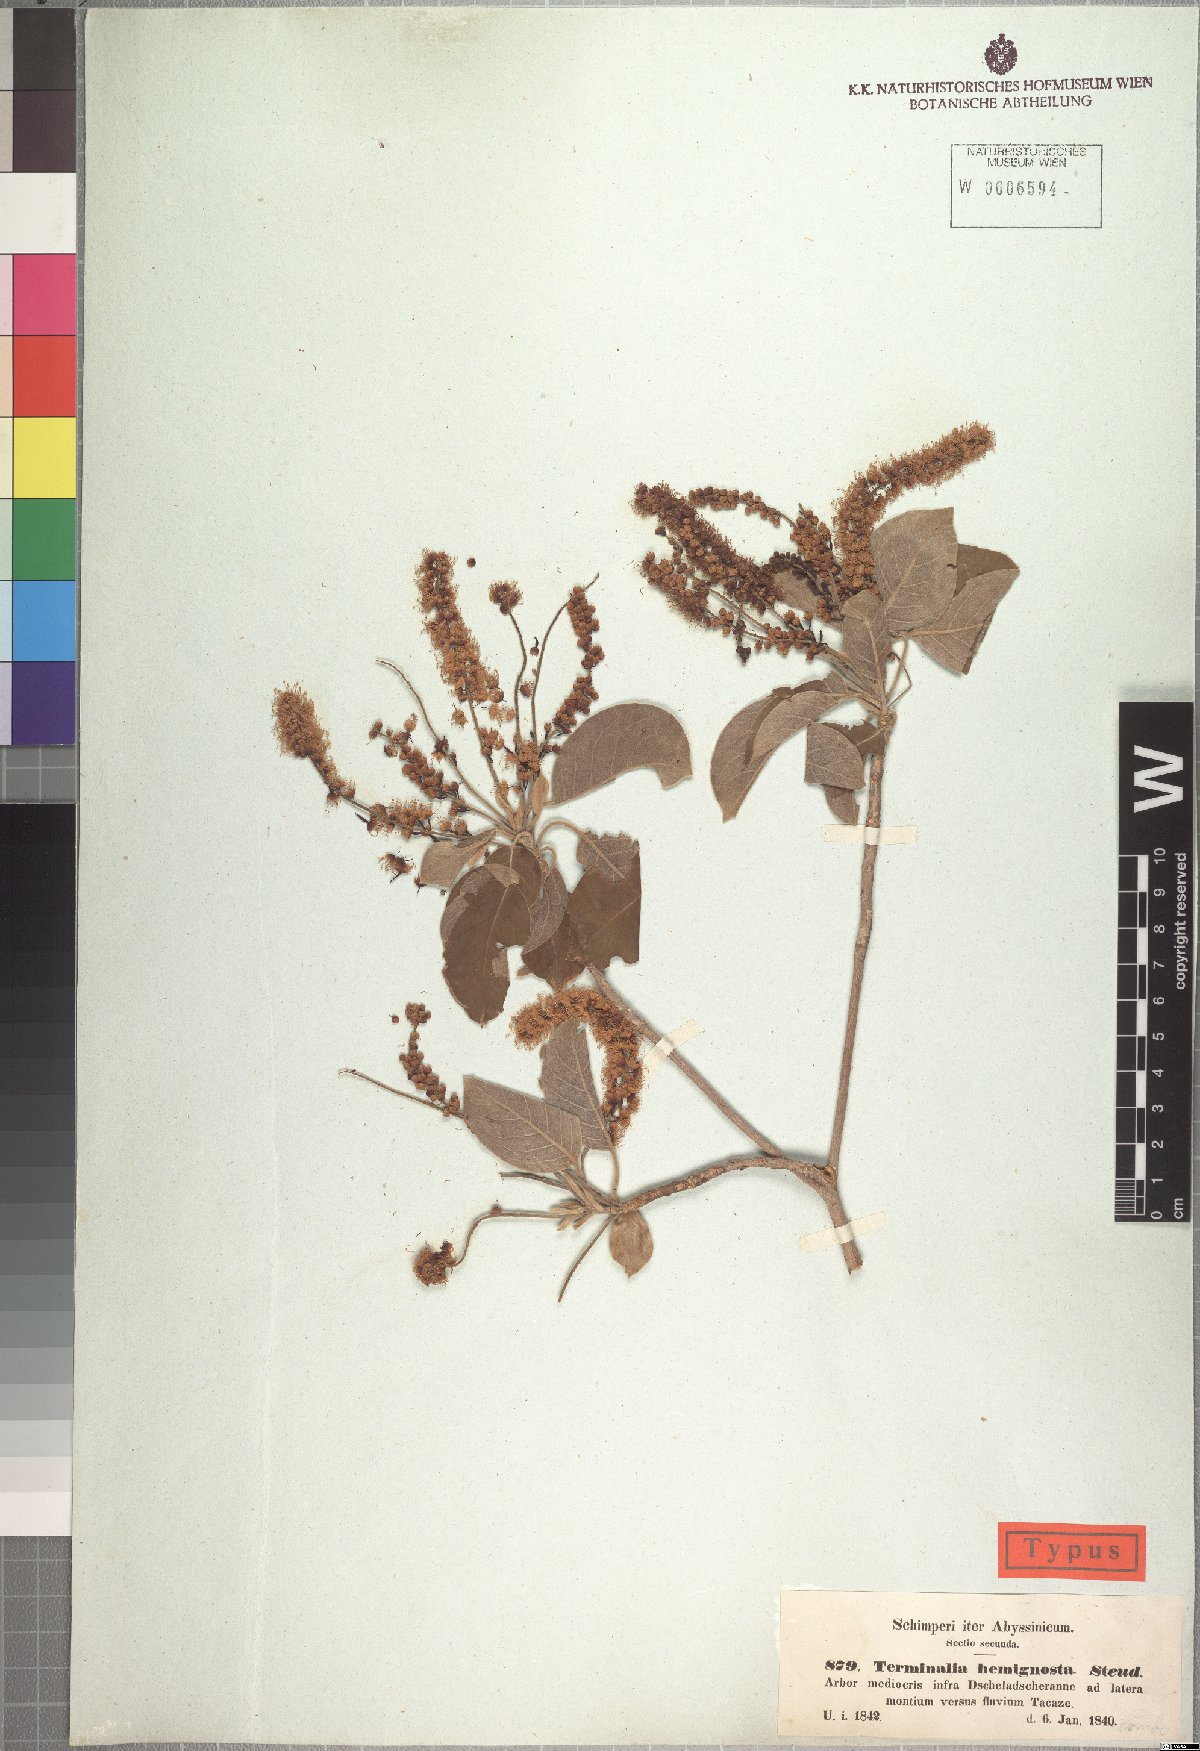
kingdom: Plantae
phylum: Tracheophyta
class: Magnoliopsida
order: Myrtales
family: Combretaceae
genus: Terminalia
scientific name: Terminalia brownii
